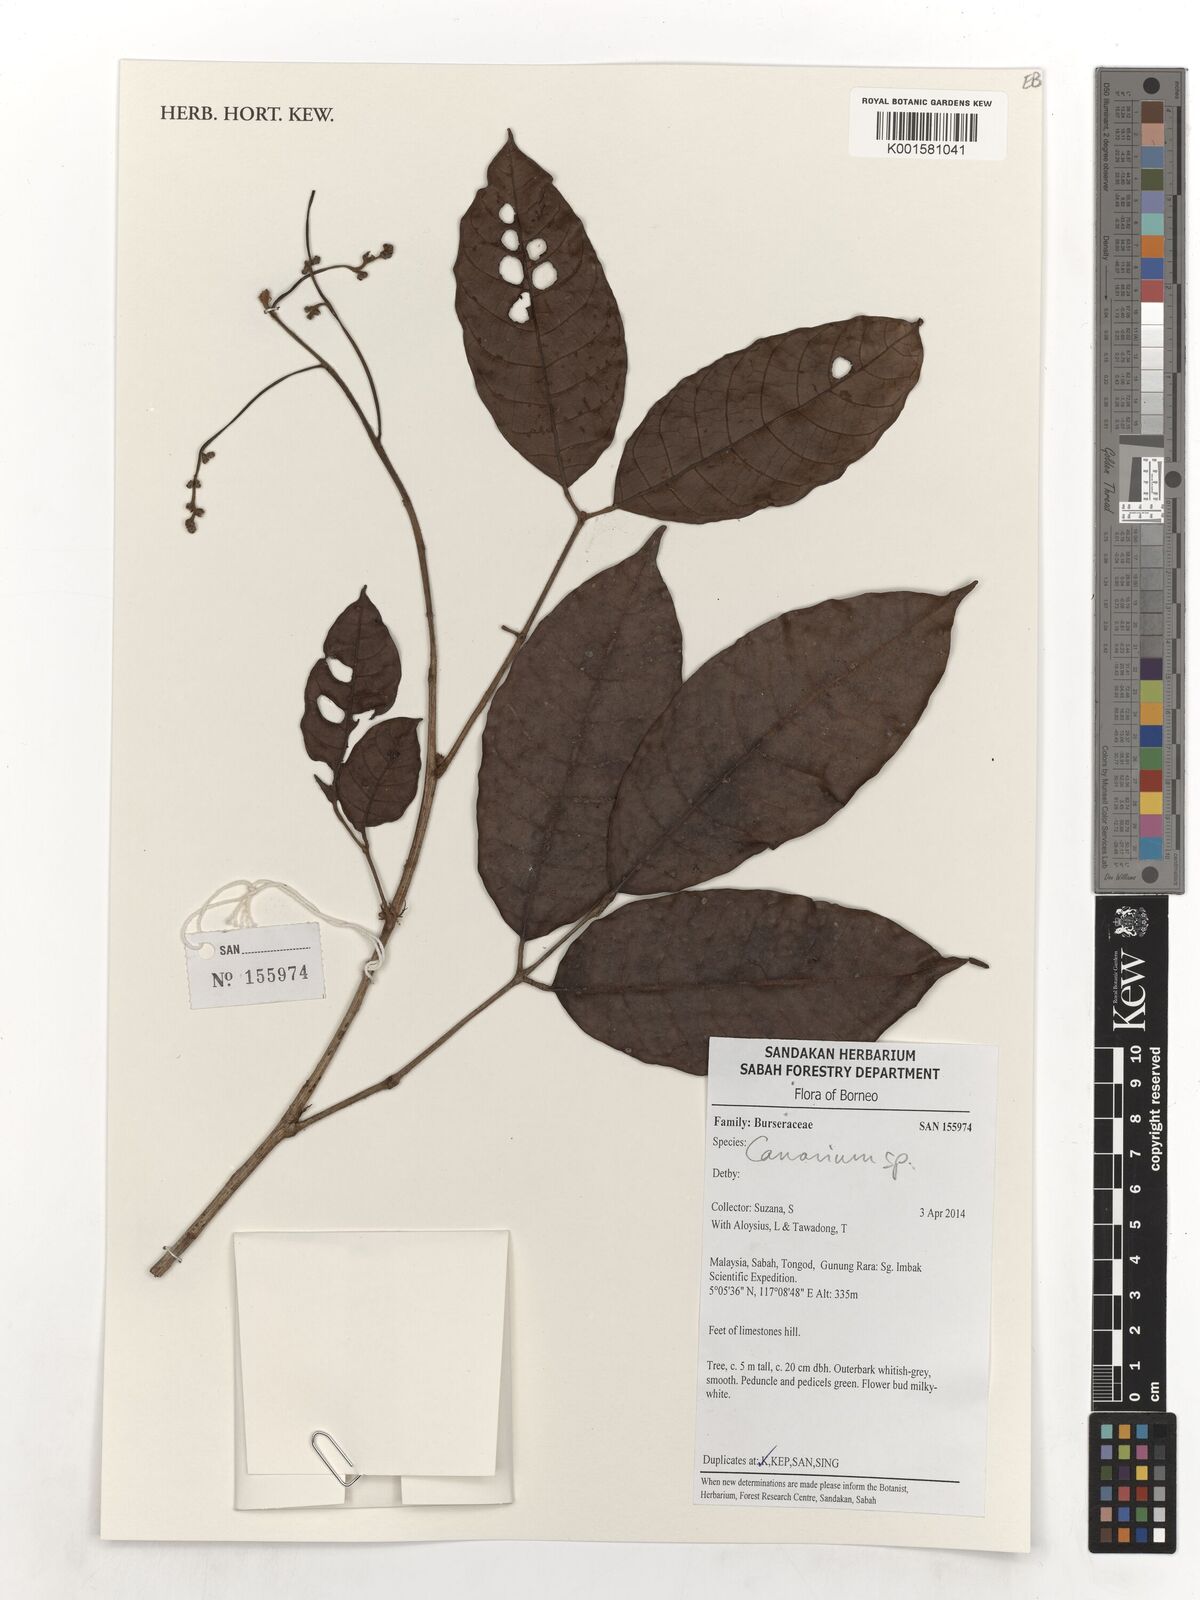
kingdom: Plantae
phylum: Tracheophyta
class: Magnoliopsida
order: Sapindales
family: Burseraceae
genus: Canarium
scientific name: Canarium
